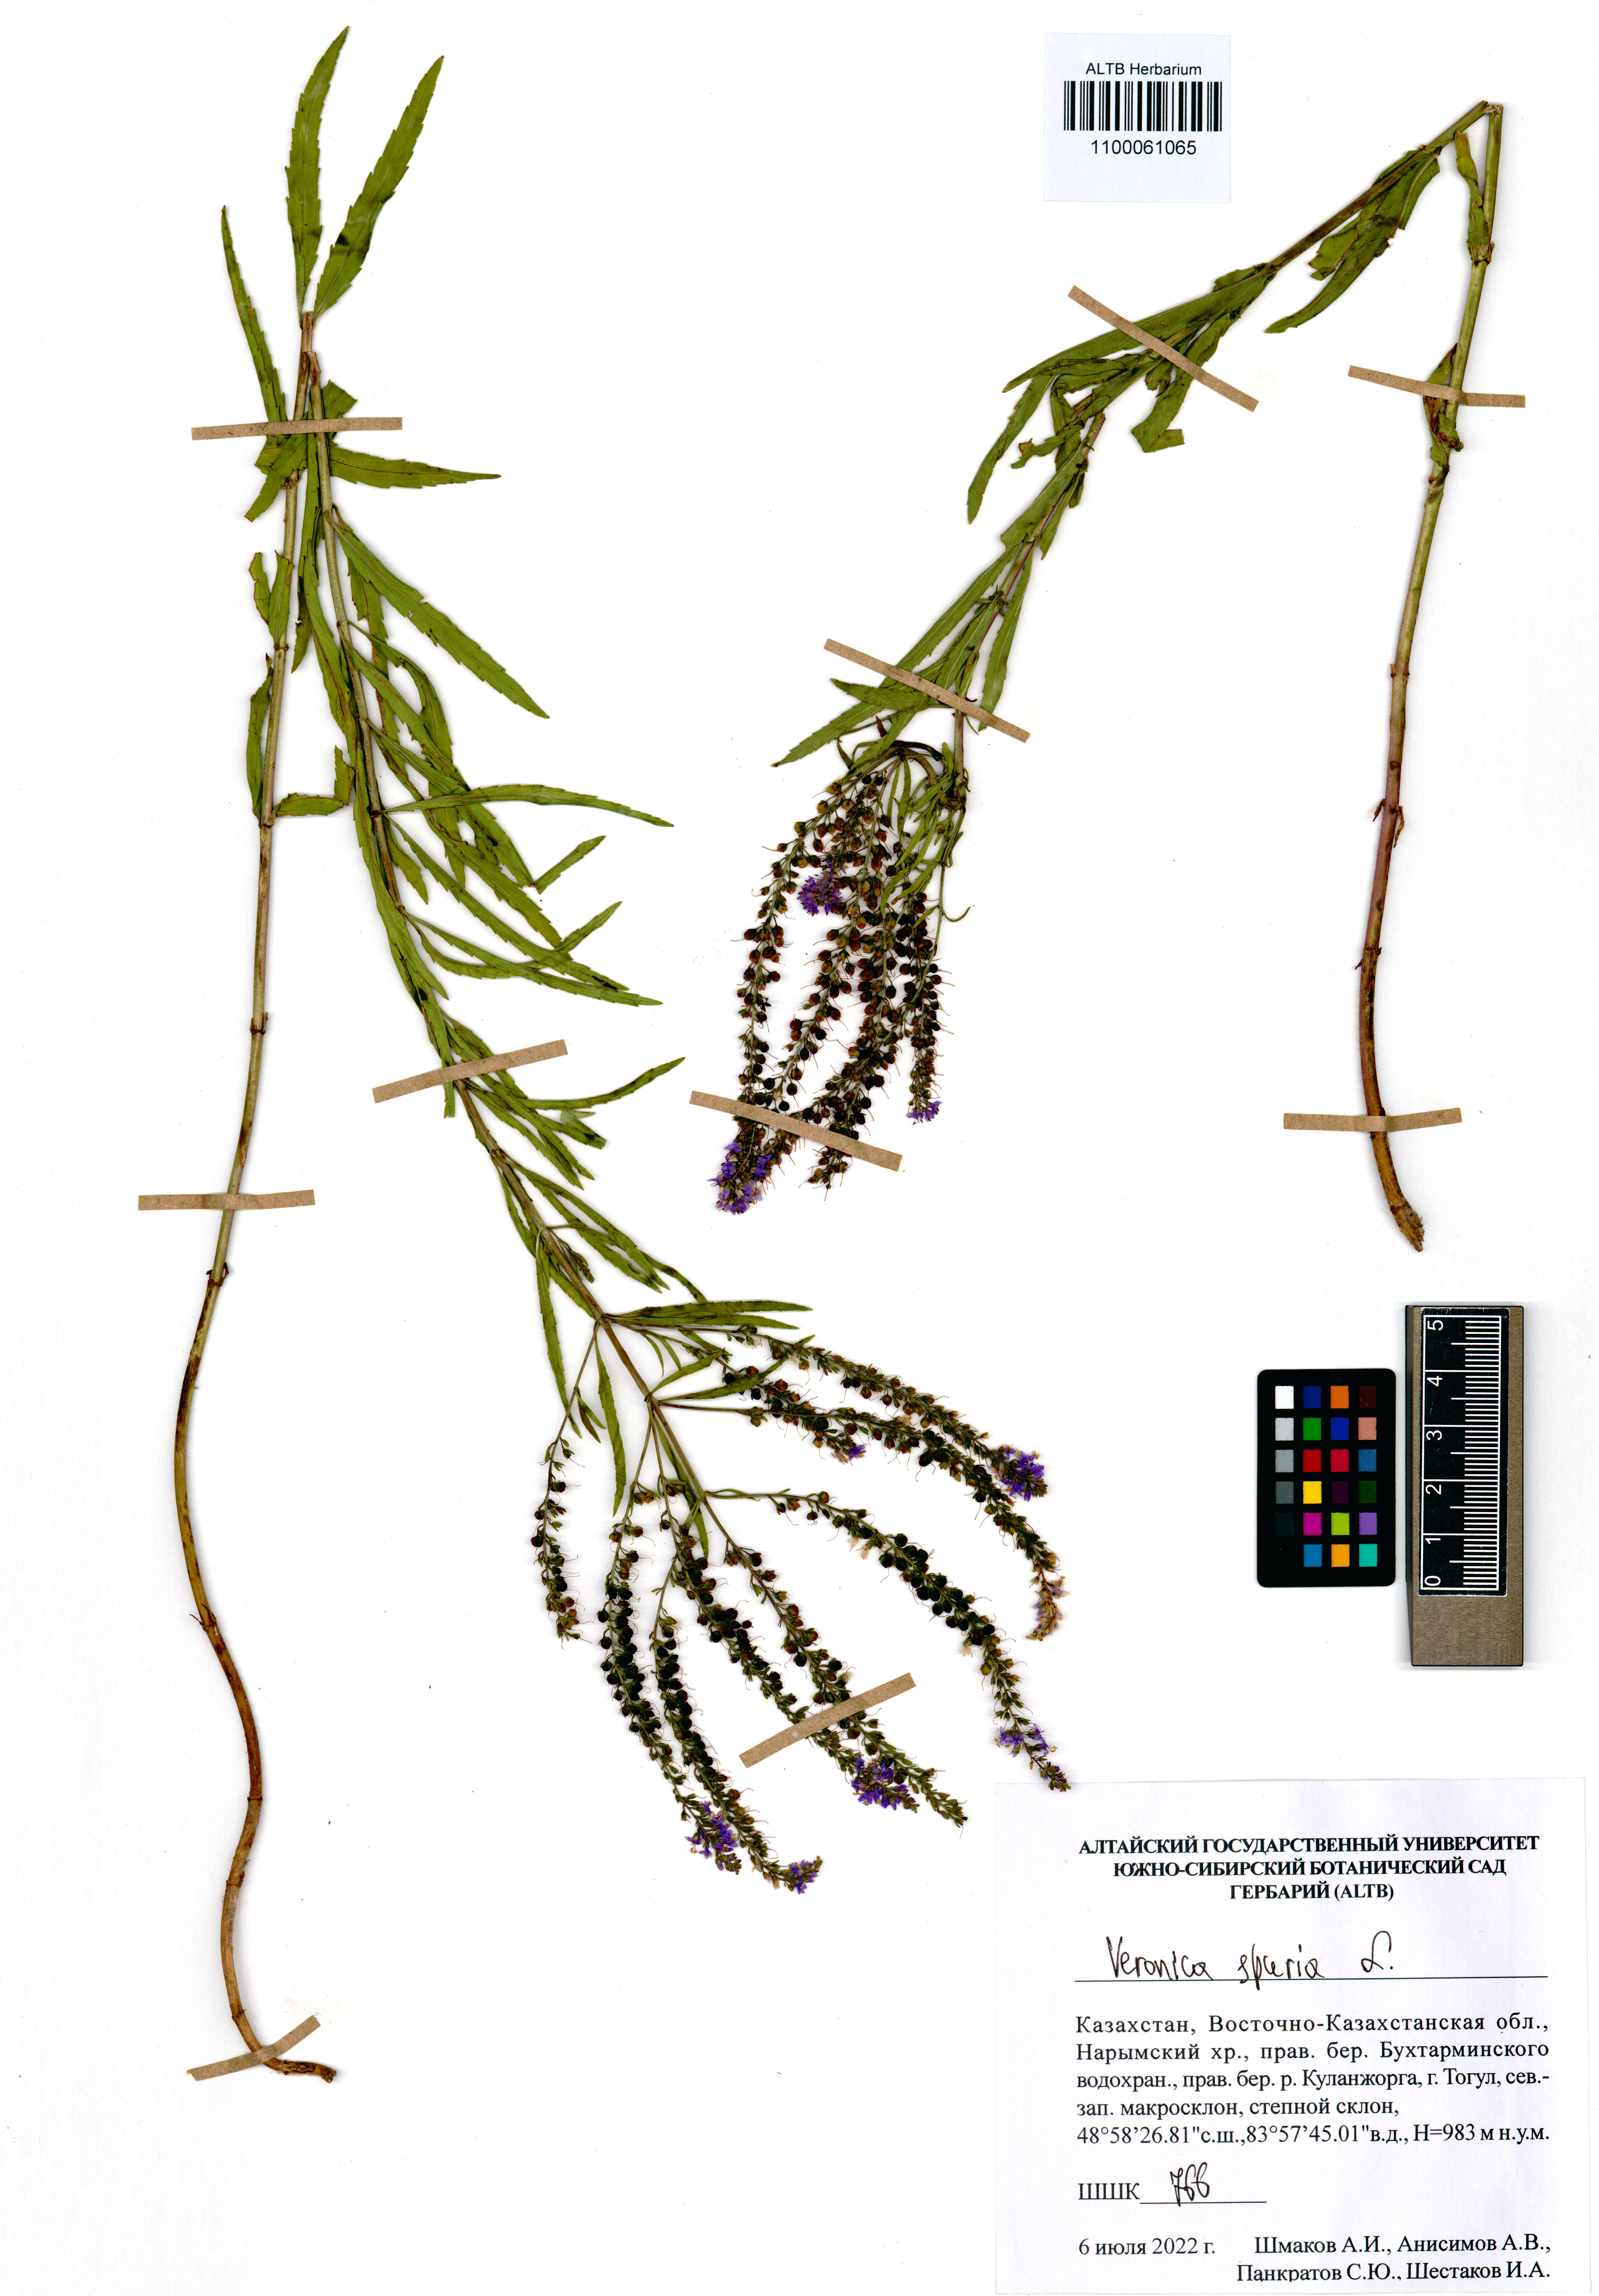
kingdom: Plantae
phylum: Tracheophyta
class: Magnoliopsida
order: Lamiales
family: Plantaginaceae
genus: Veronica
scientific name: Veronica spuria
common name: Bastard speedwell
